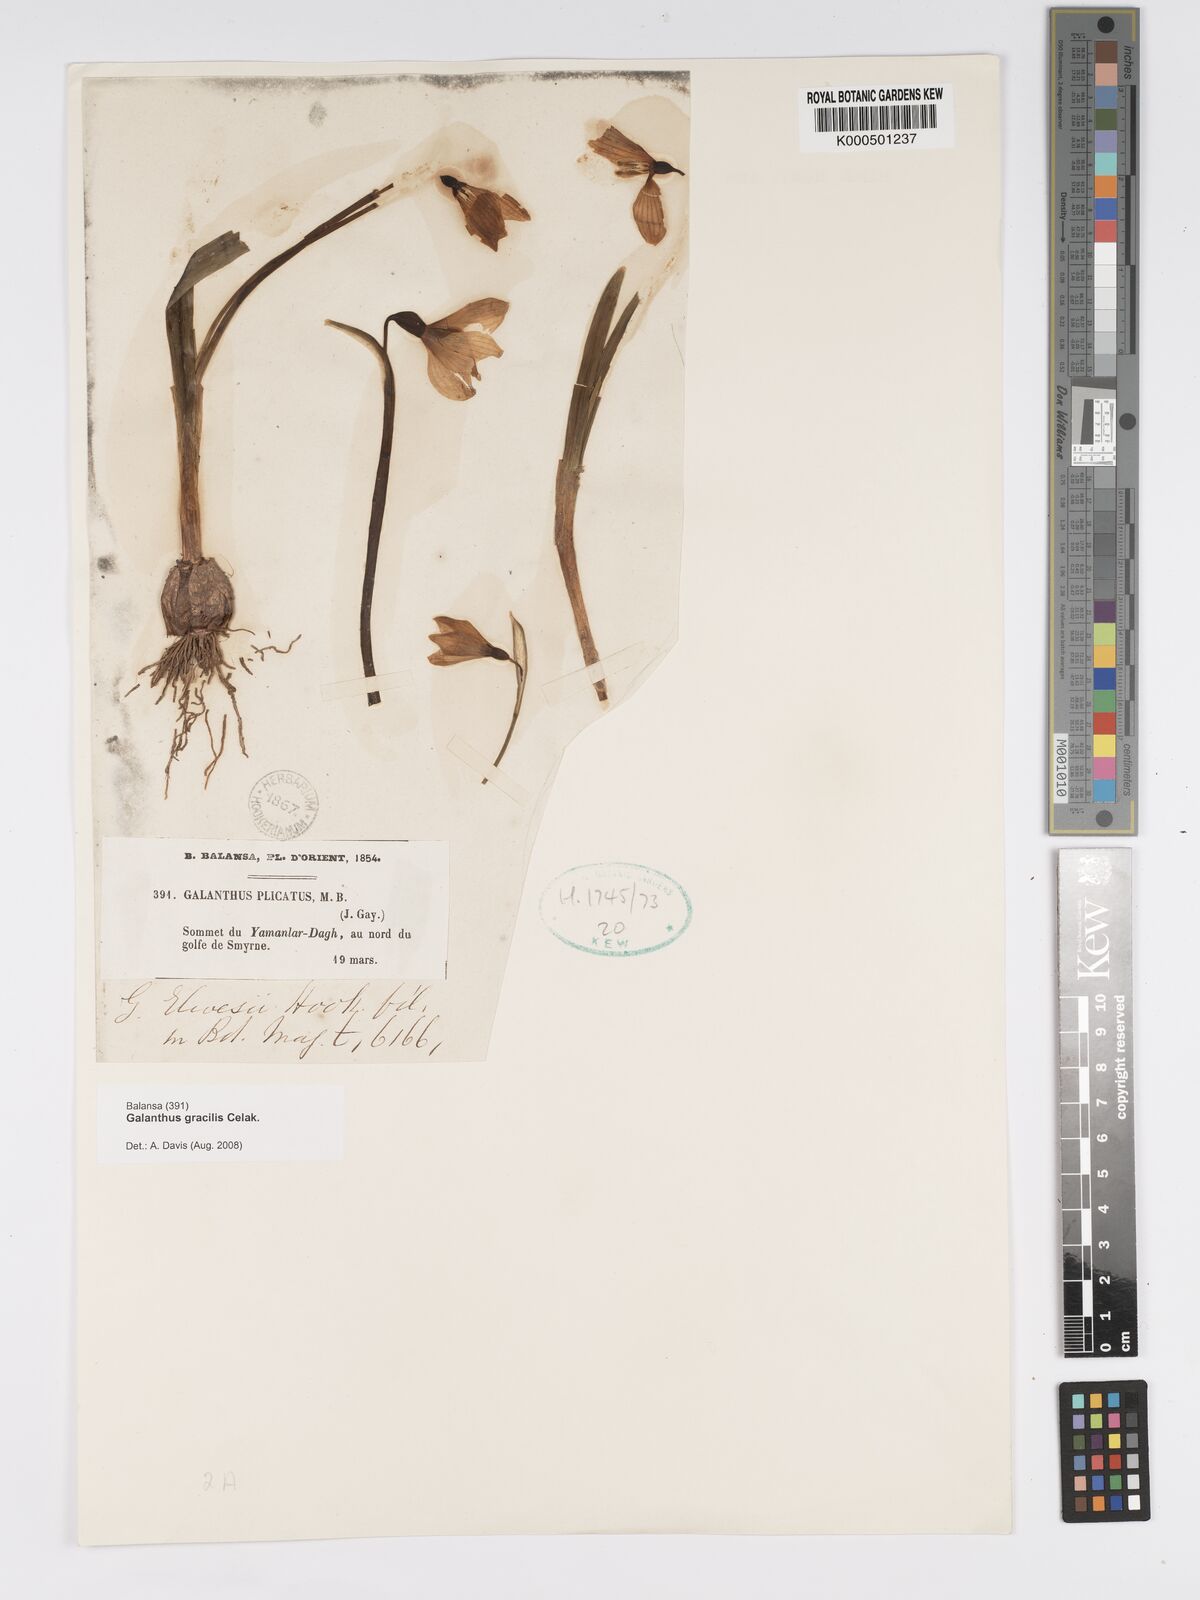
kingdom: Plantae
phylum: Tracheophyta
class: Liliopsida
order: Asparagales
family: Amaryllidaceae
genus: Galanthus
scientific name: Galanthus gracilis
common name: Snowdrop
